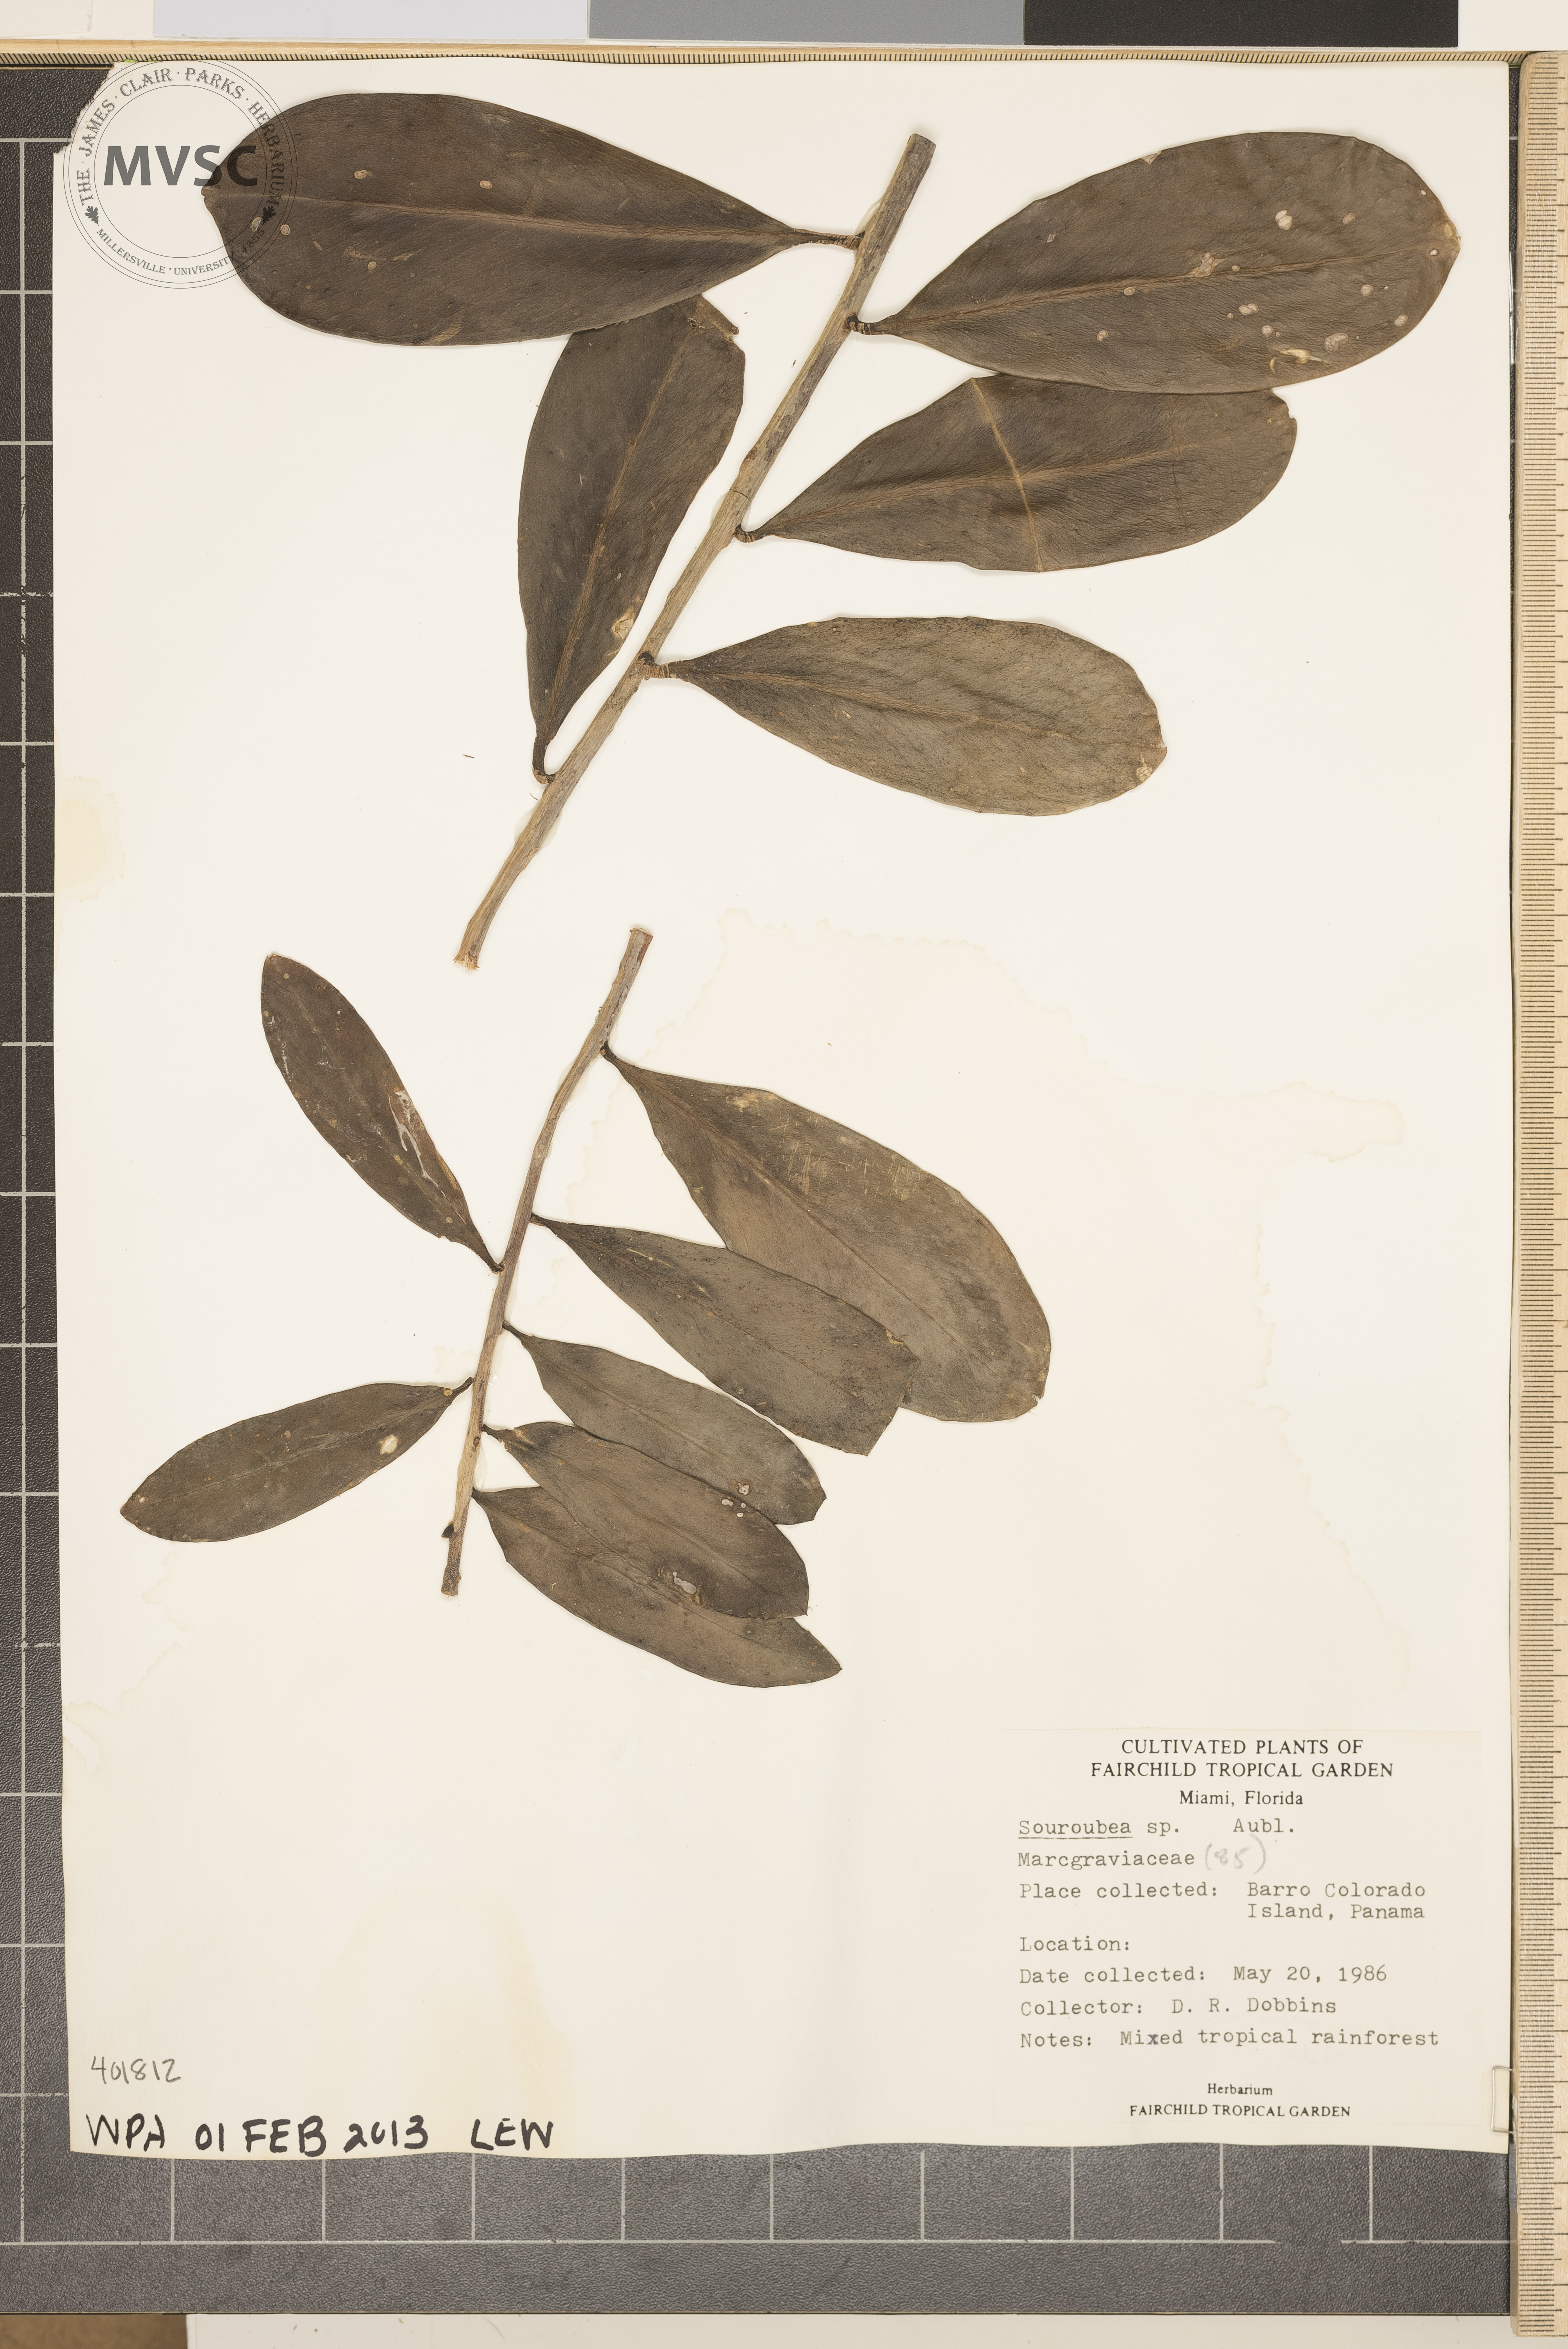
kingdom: Plantae
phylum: Tracheophyta
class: Magnoliopsida
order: Ericales
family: Marcgraviaceae
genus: Souroubea
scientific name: Souroubea
